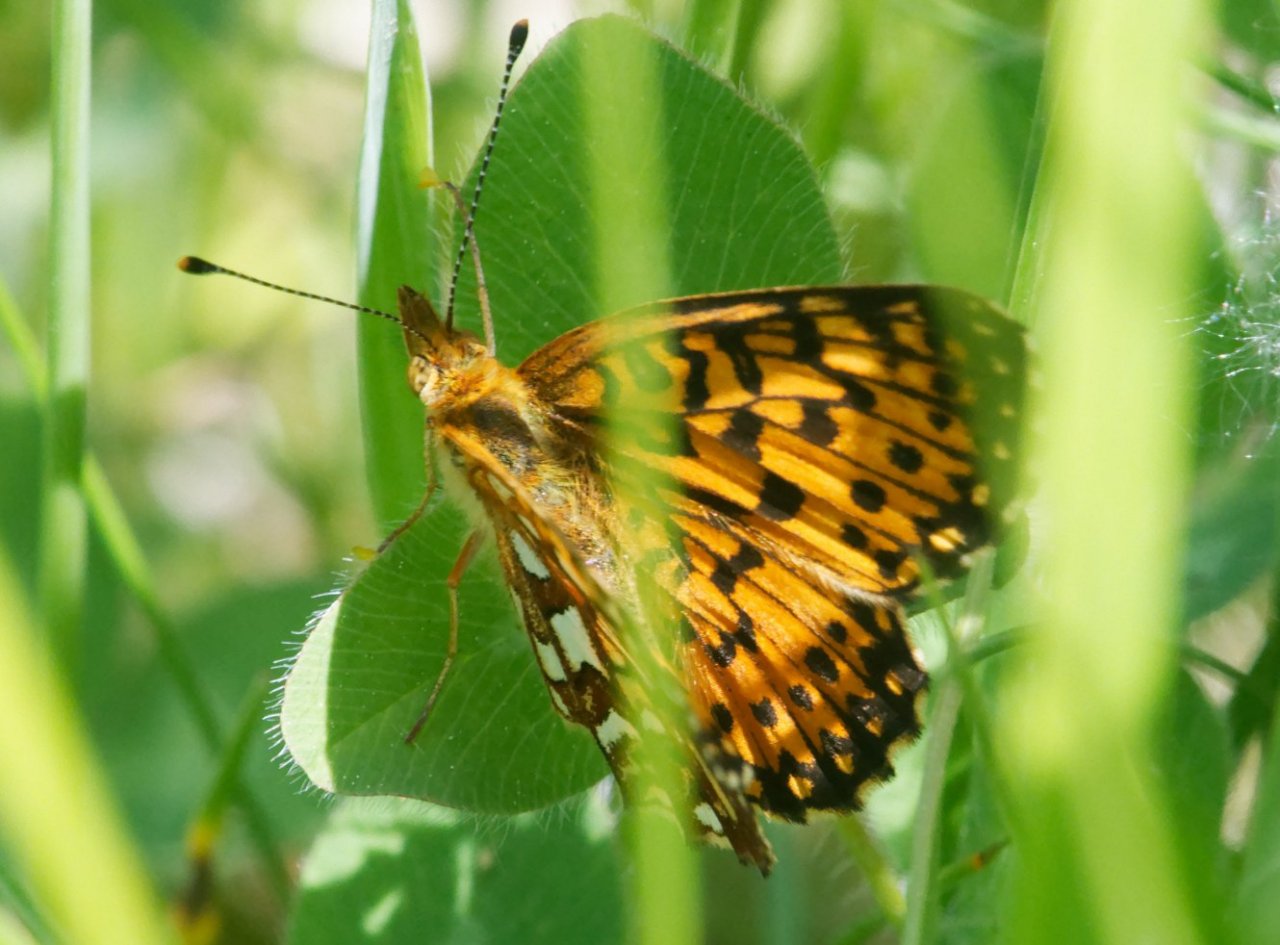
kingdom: Animalia
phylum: Arthropoda
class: Insecta
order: Lepidoptera
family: Nymphalidae
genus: Boloria
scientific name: Boloria selene
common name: Silver-bordered Fritillary
